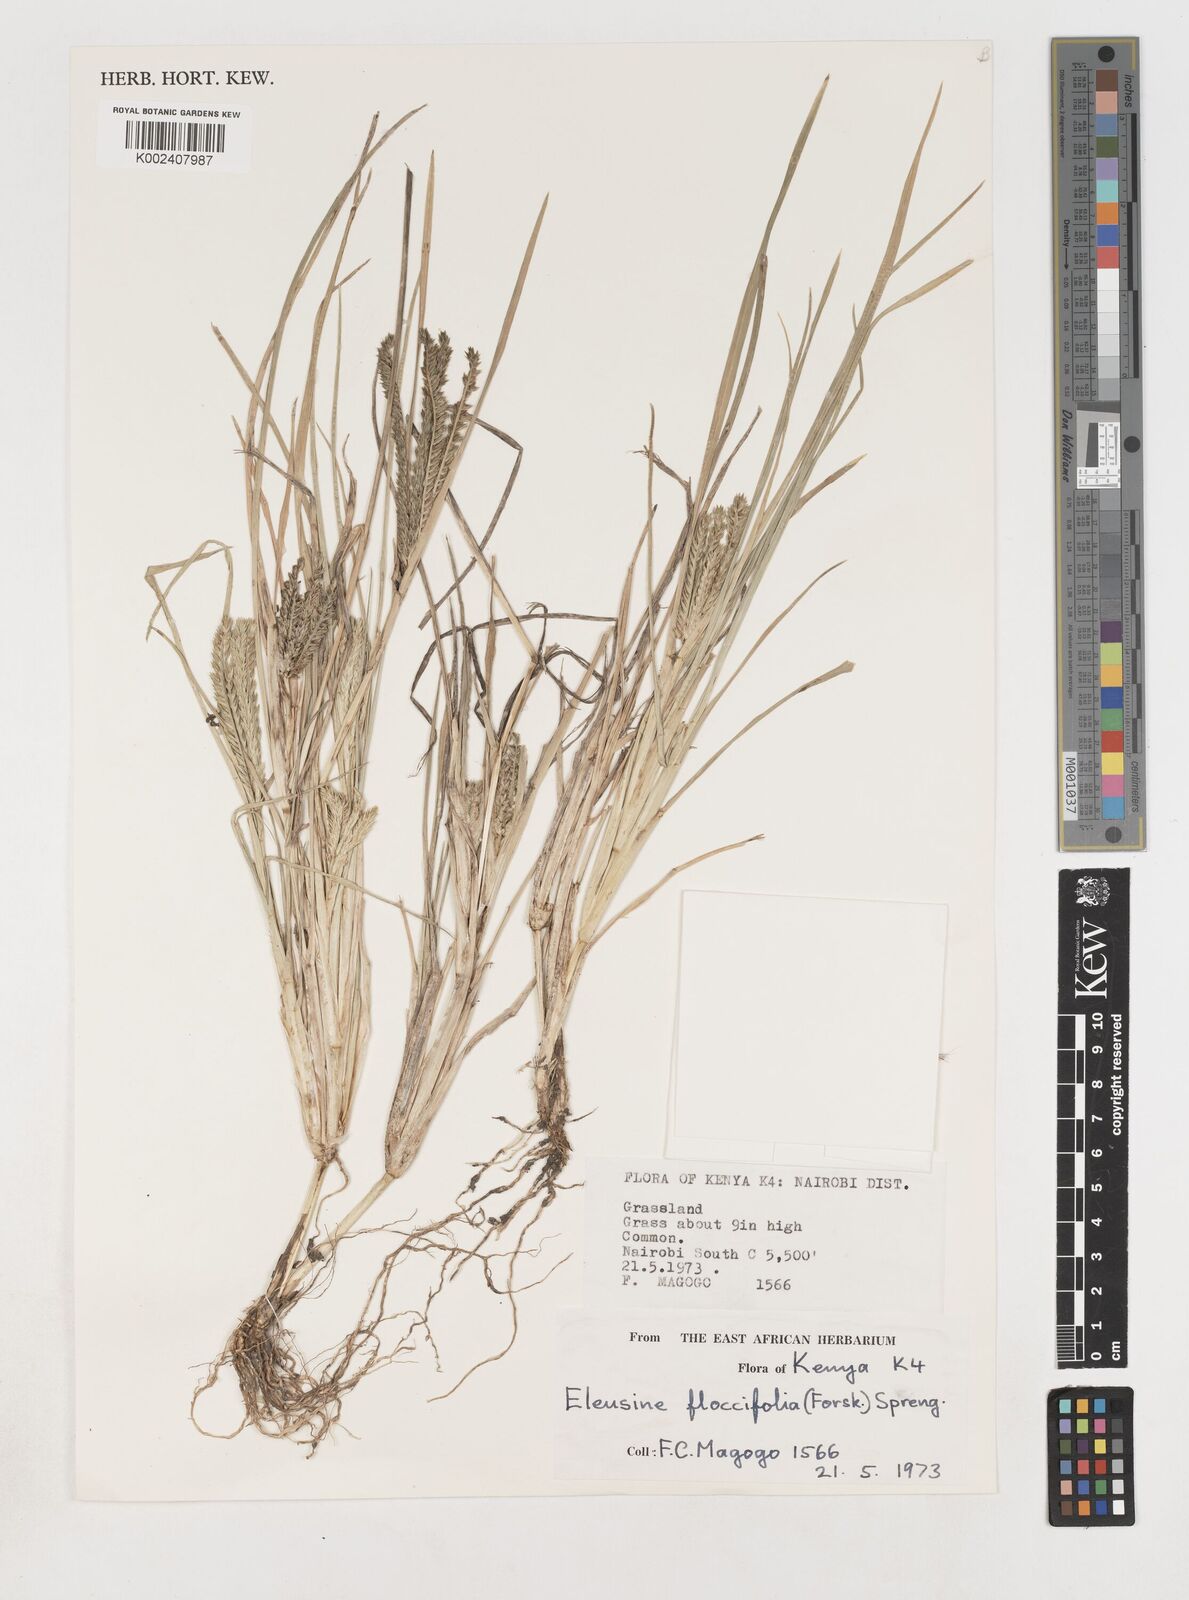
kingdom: Plantae
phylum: Tracheophyta
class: Liliopsida
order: Poales
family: Poaceae
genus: Eleusine
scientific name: Eleusine floccifolia
